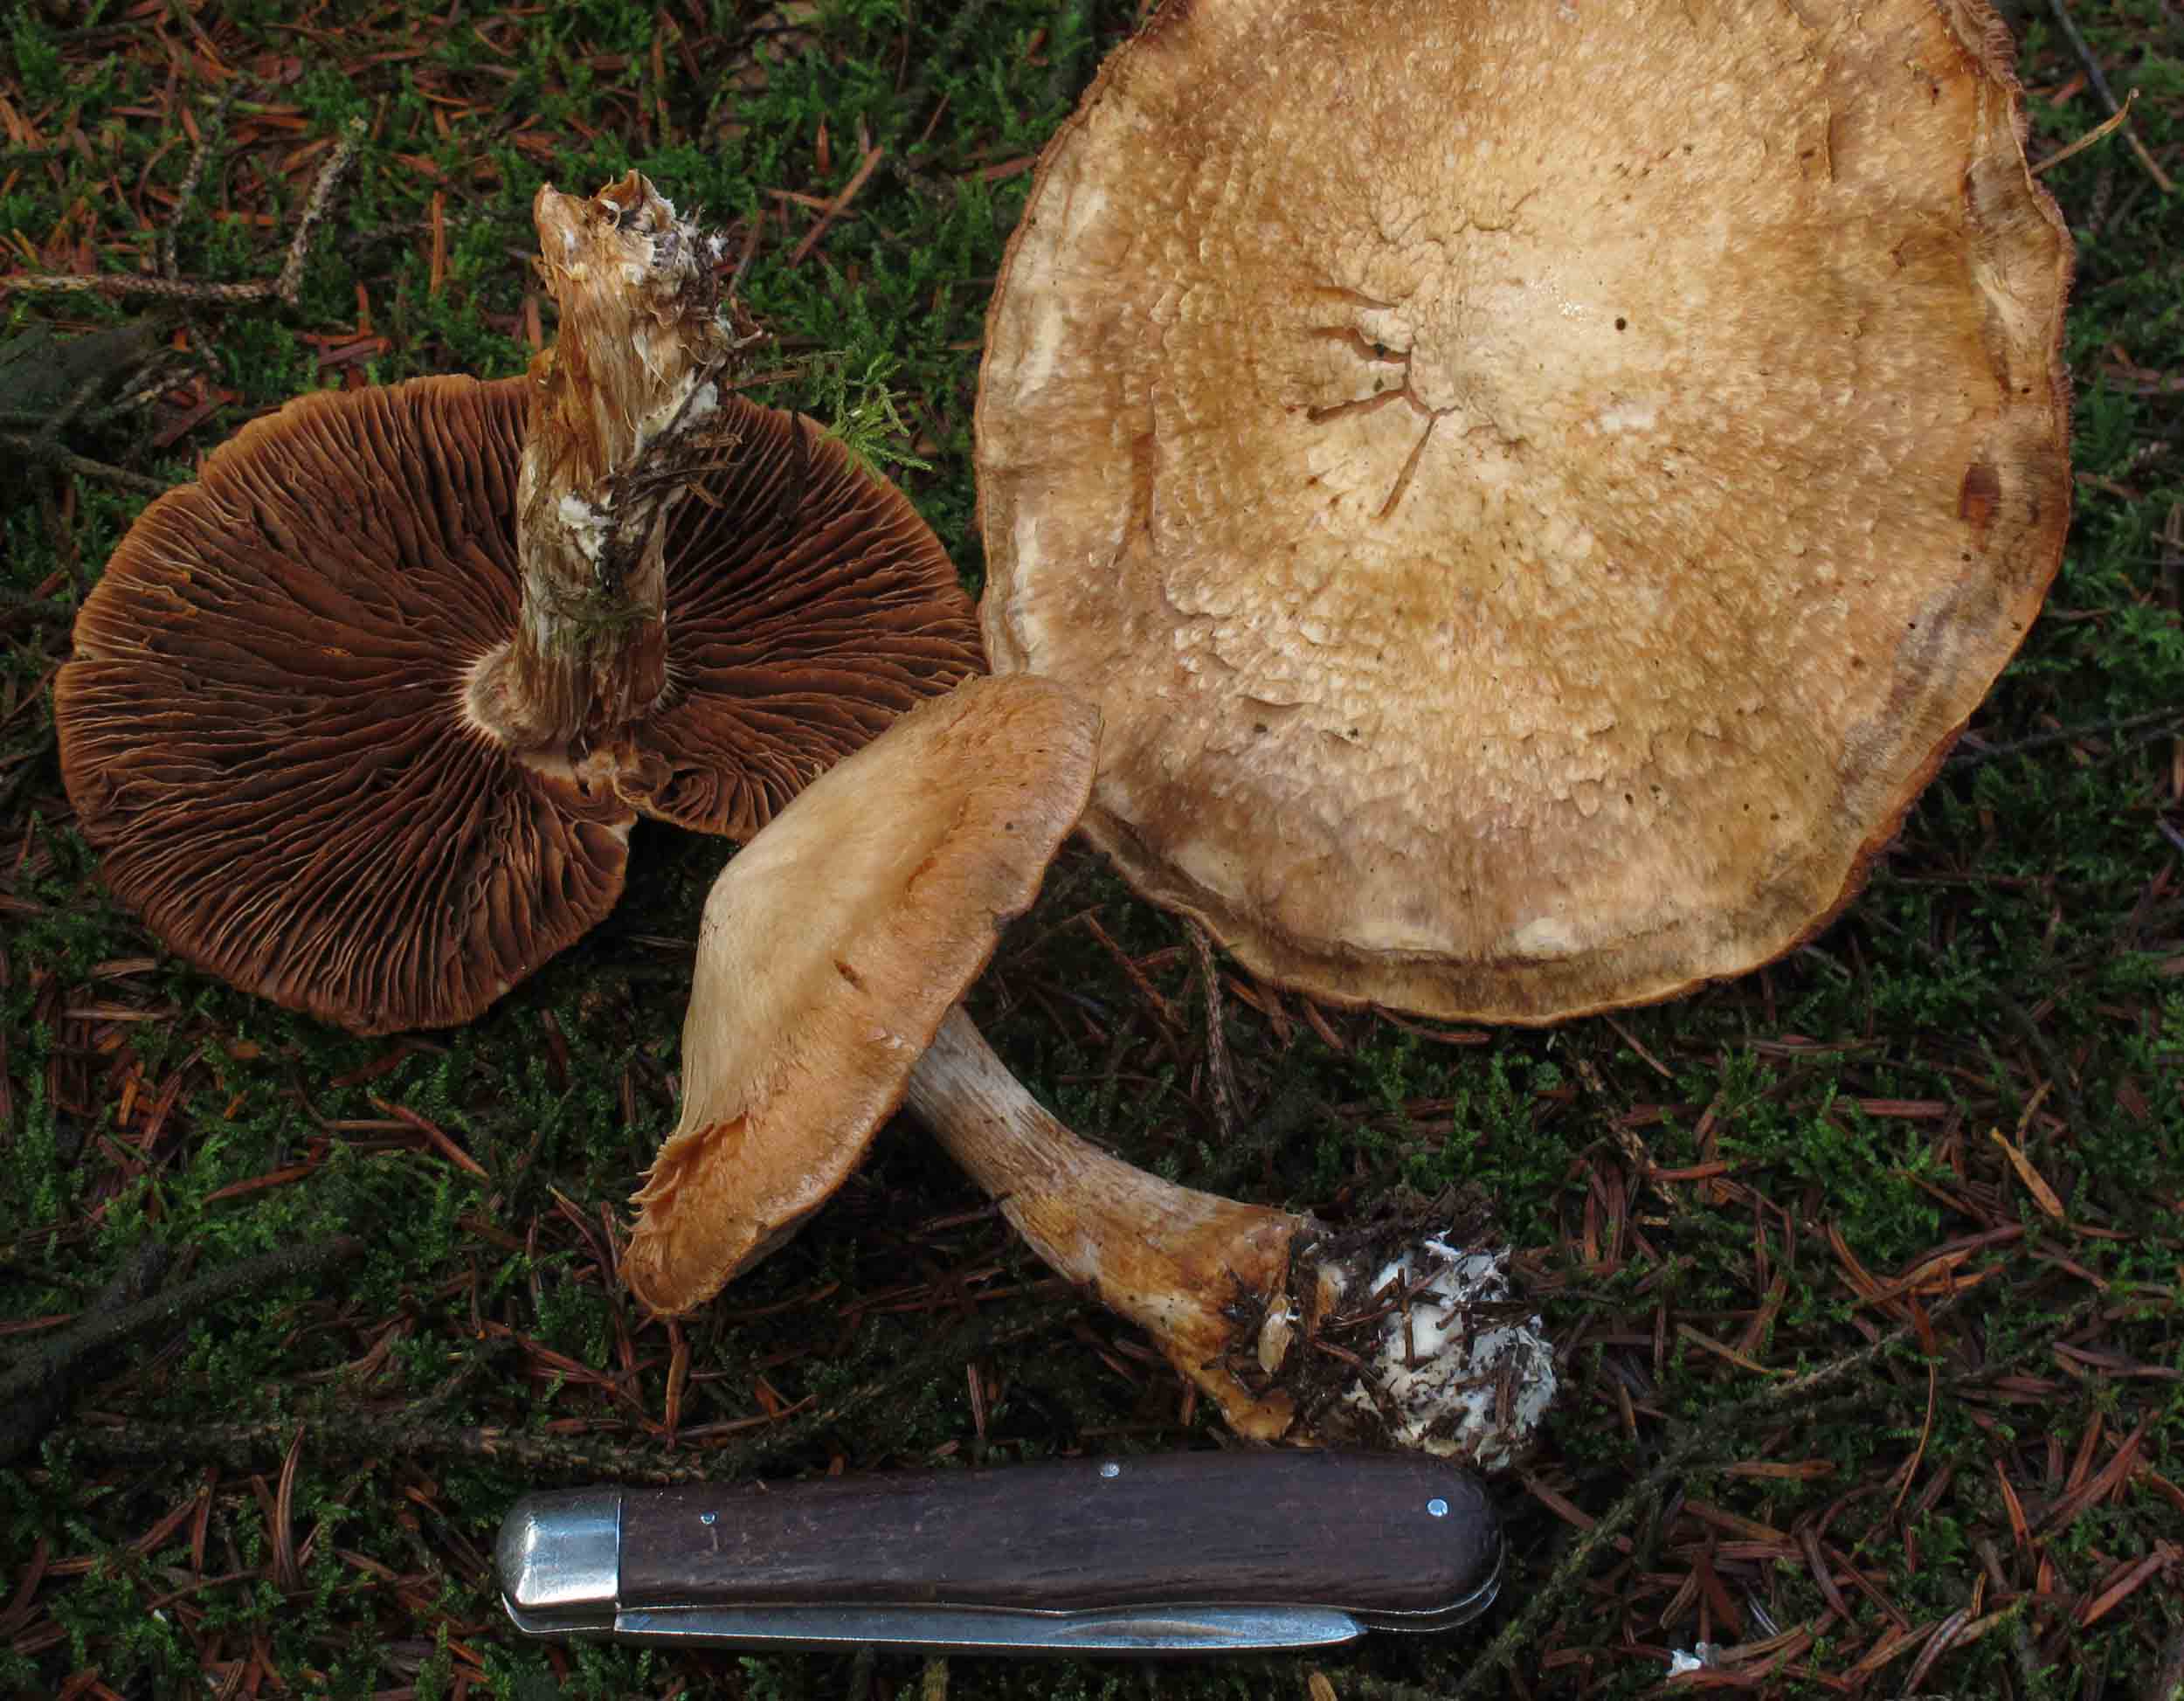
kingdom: Fungi
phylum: Basidiomycota
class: Agaricomycetes
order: Agaricales
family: Cortinariaceae
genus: Cortinarius
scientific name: Cortinarius traganus
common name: safrankødet slørhat
